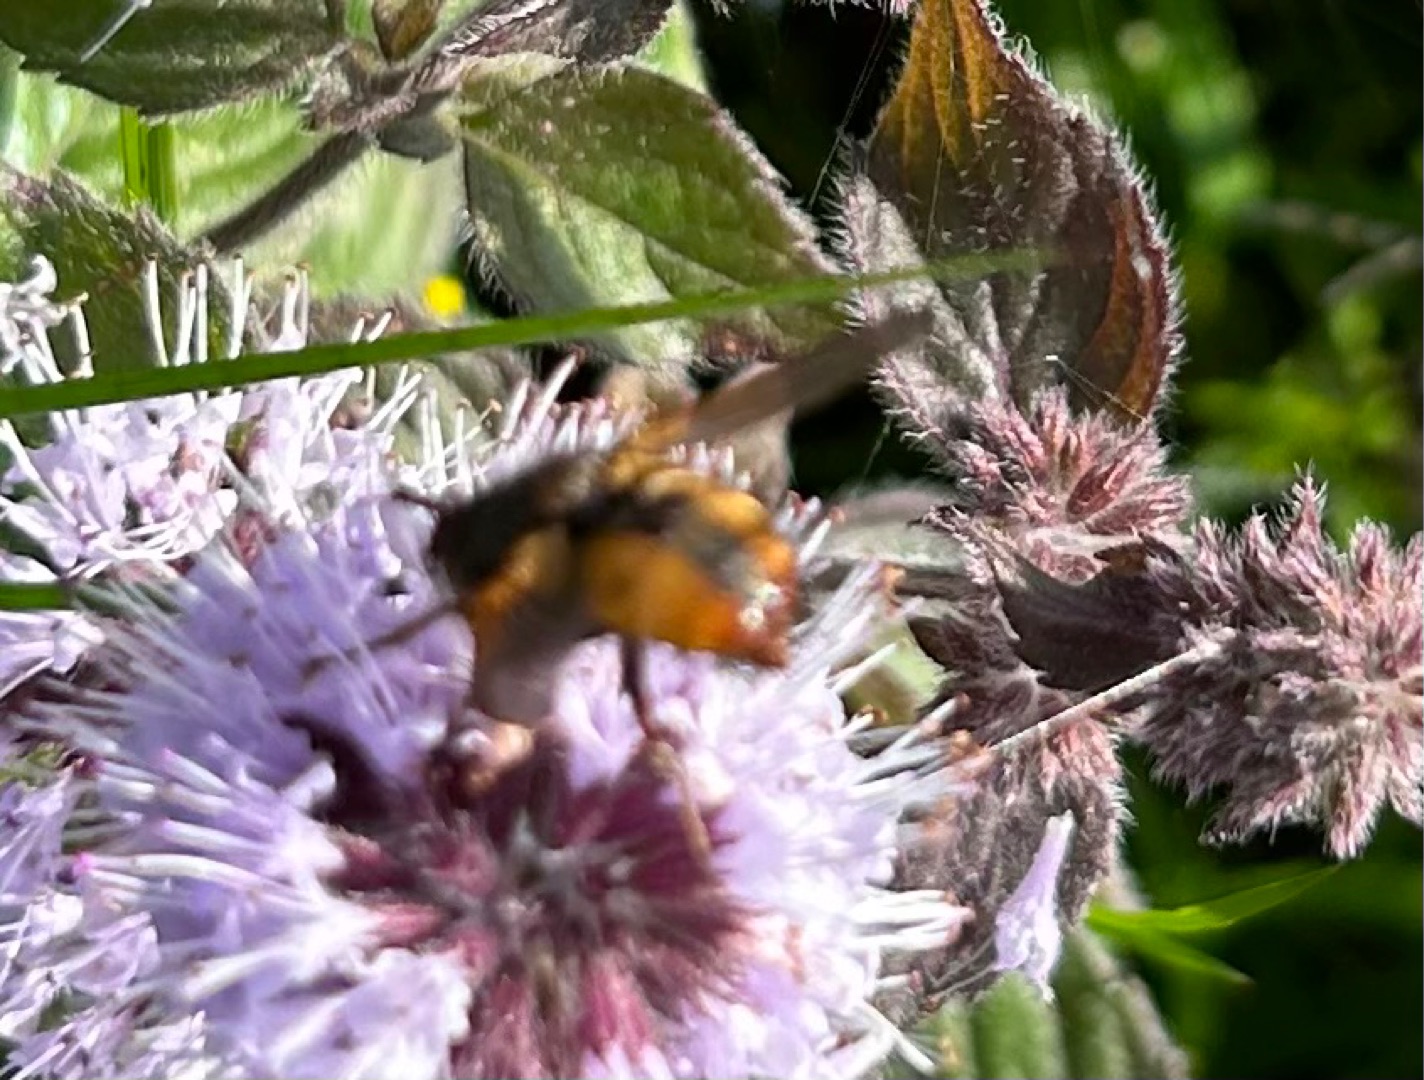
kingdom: Animalia
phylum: Arthropoda
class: Insecta
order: Diptera
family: Tachinidae
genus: Tachina
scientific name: Tachina fera
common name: Mellemfluen oskar
